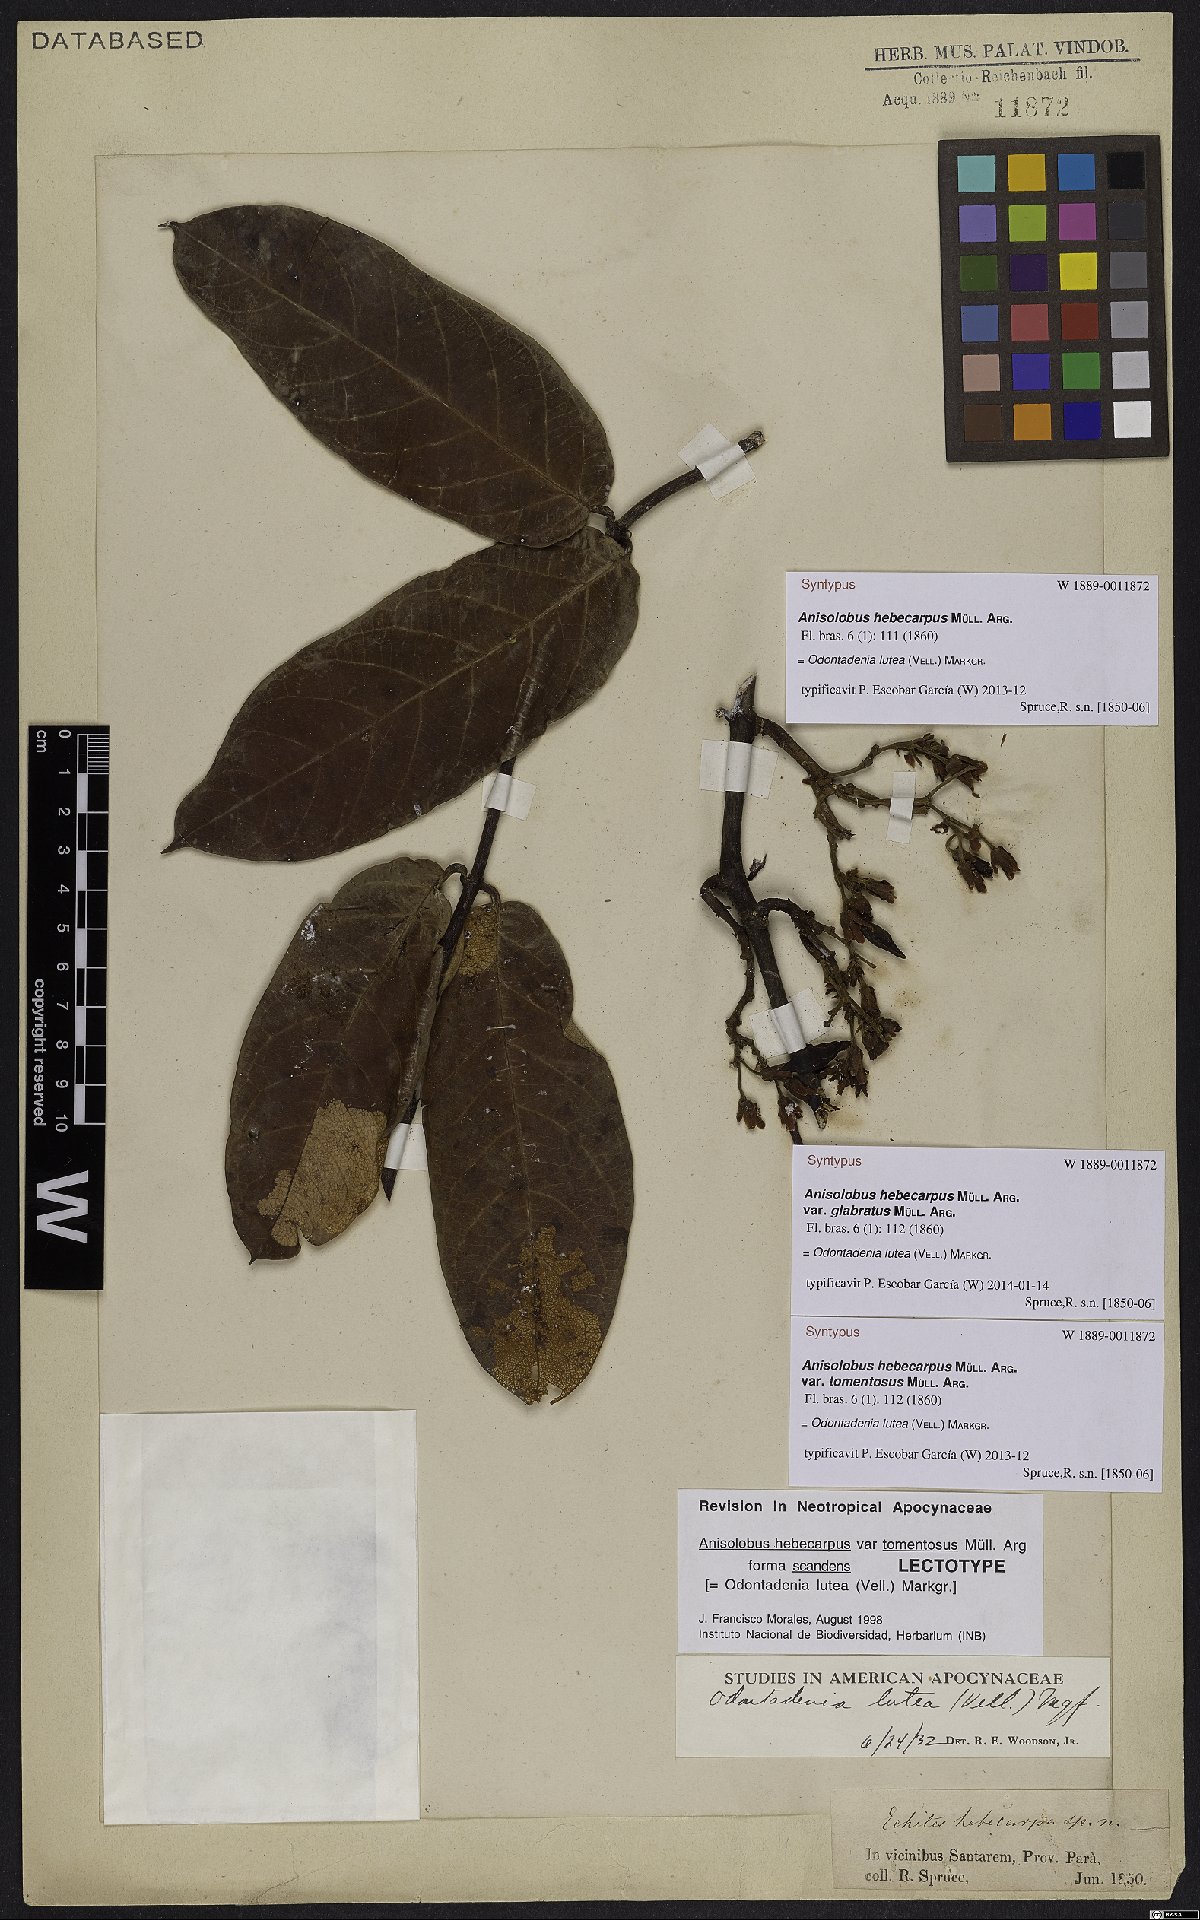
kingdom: Plantae
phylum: Tracheophyta
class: Magnoliopsida
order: Gentianales
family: Apocynaceae
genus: Odontadenia
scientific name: Odontadenia lutea
